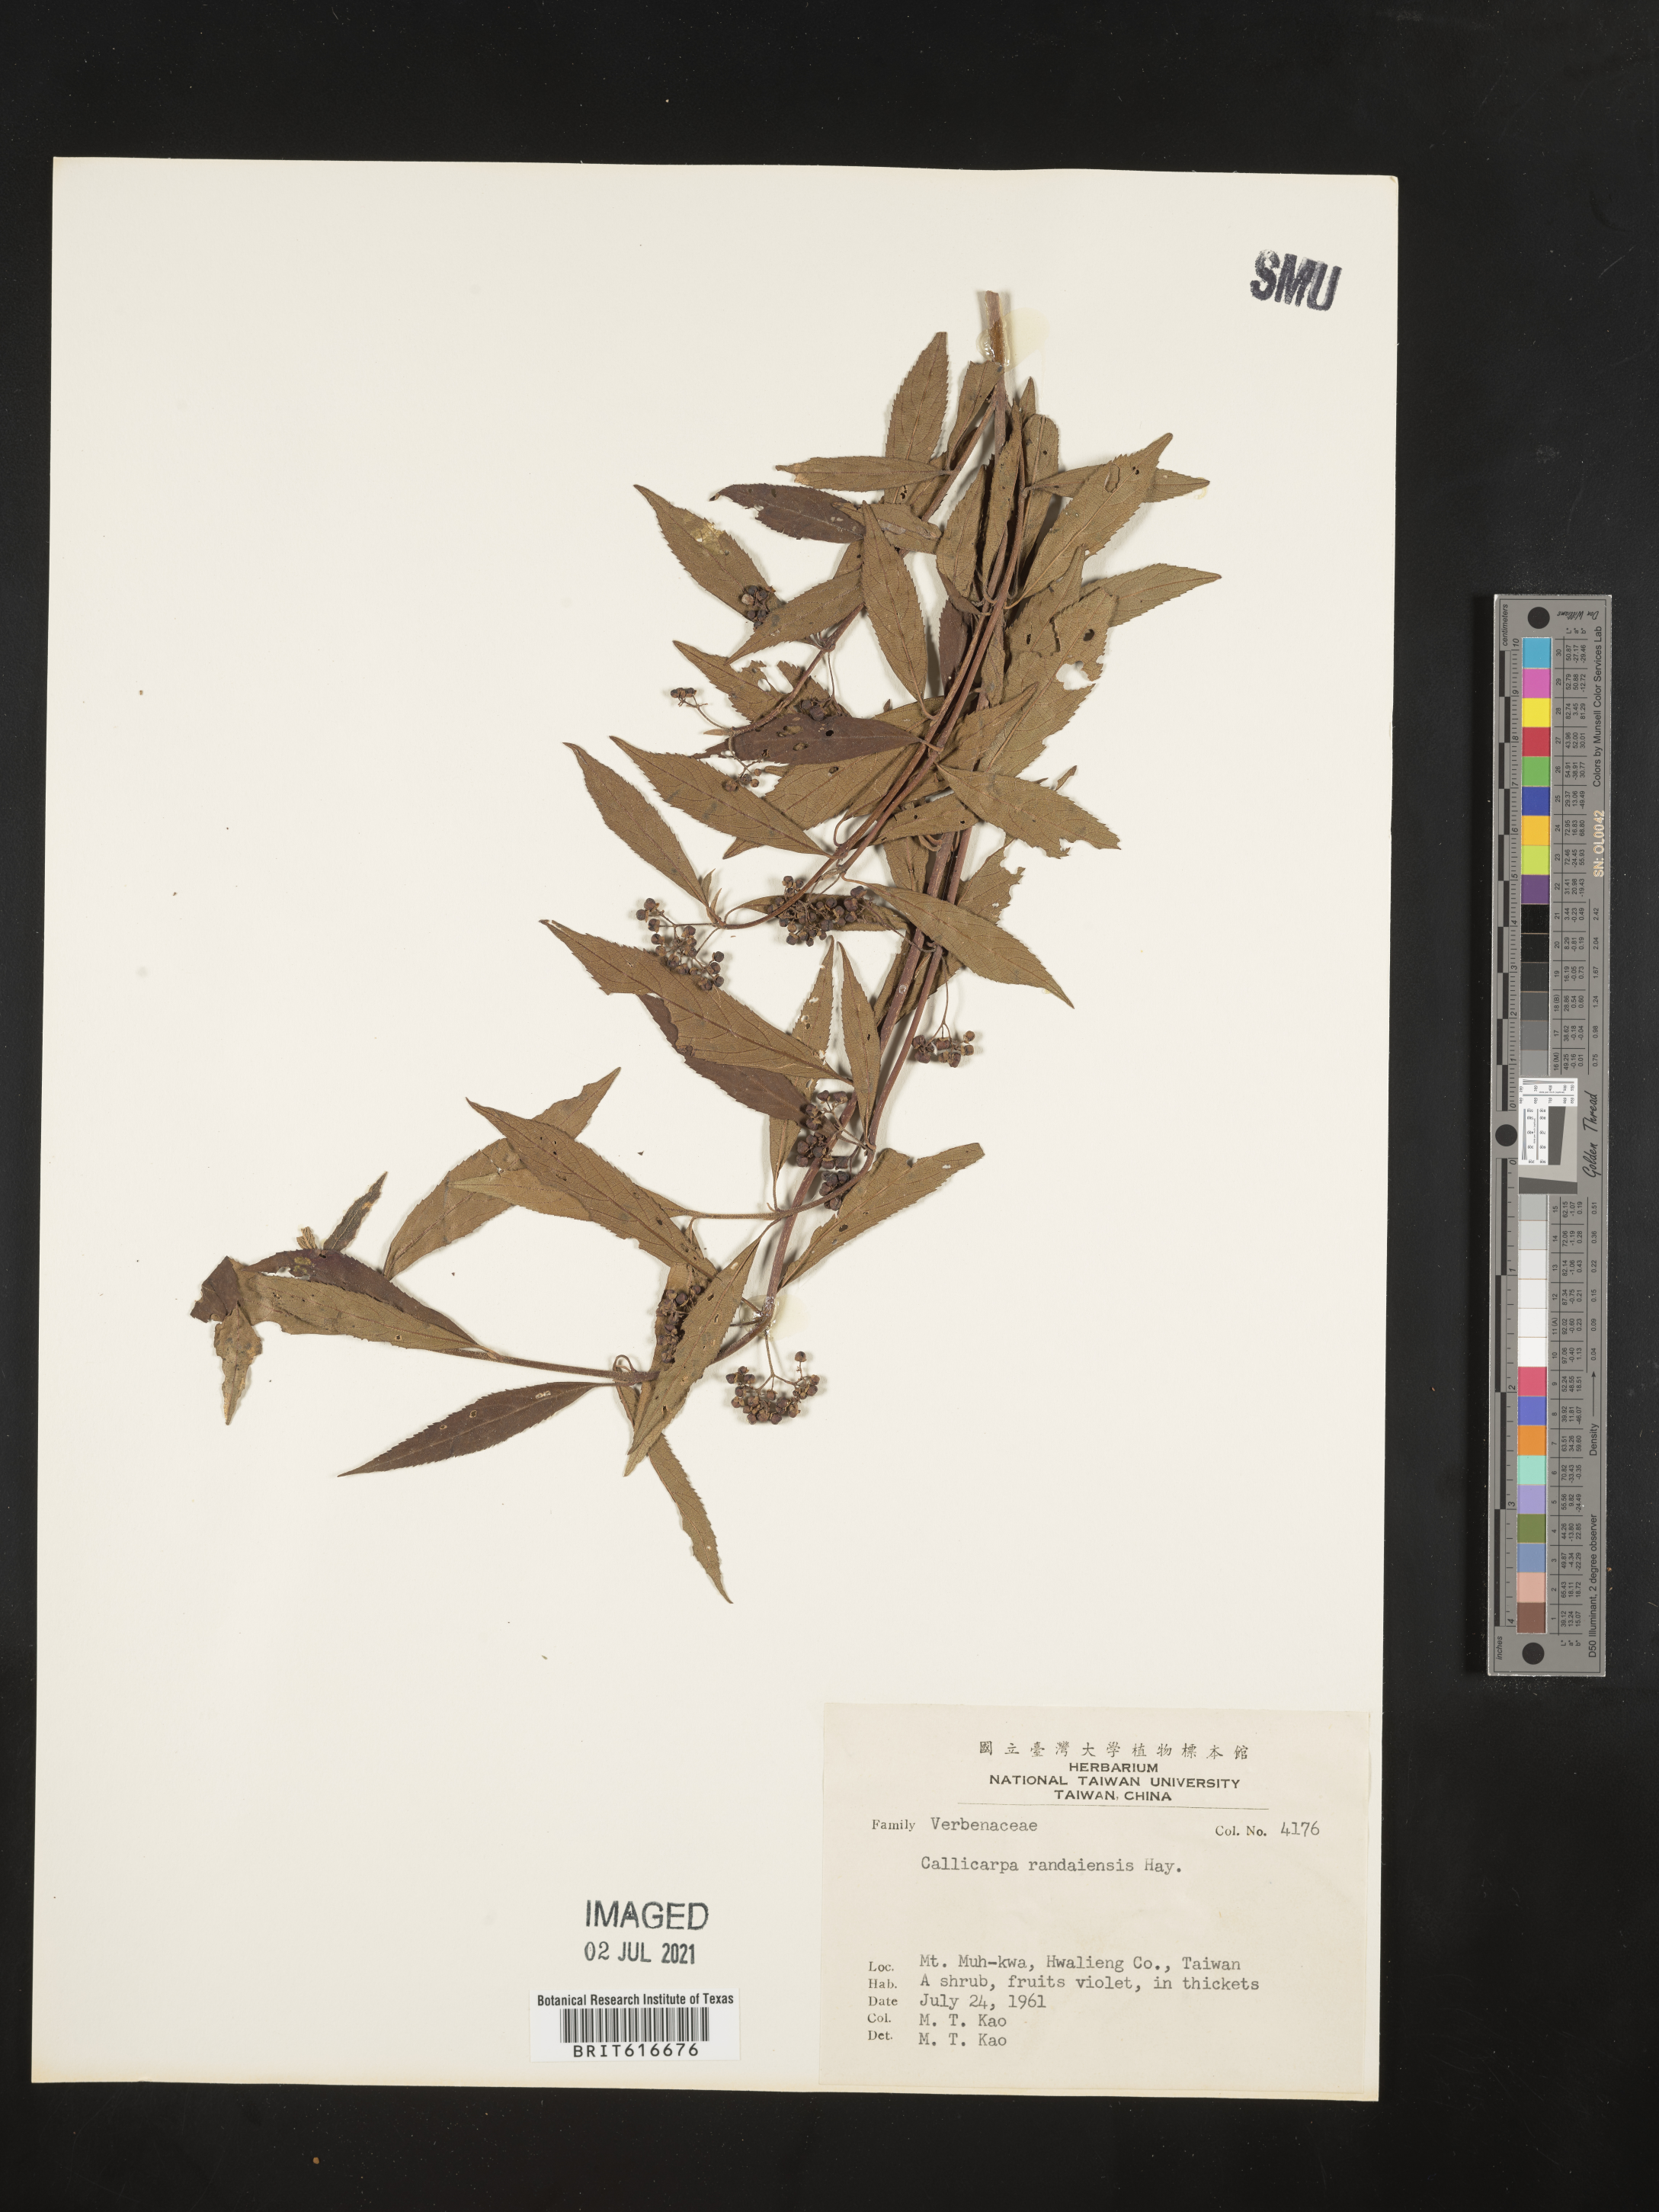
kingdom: Plantae
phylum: Tracheophyta
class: Magnoliopsida
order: Lamiales
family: Lamiaceae
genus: Callicarpa
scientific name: Callicarpa randaiensis
